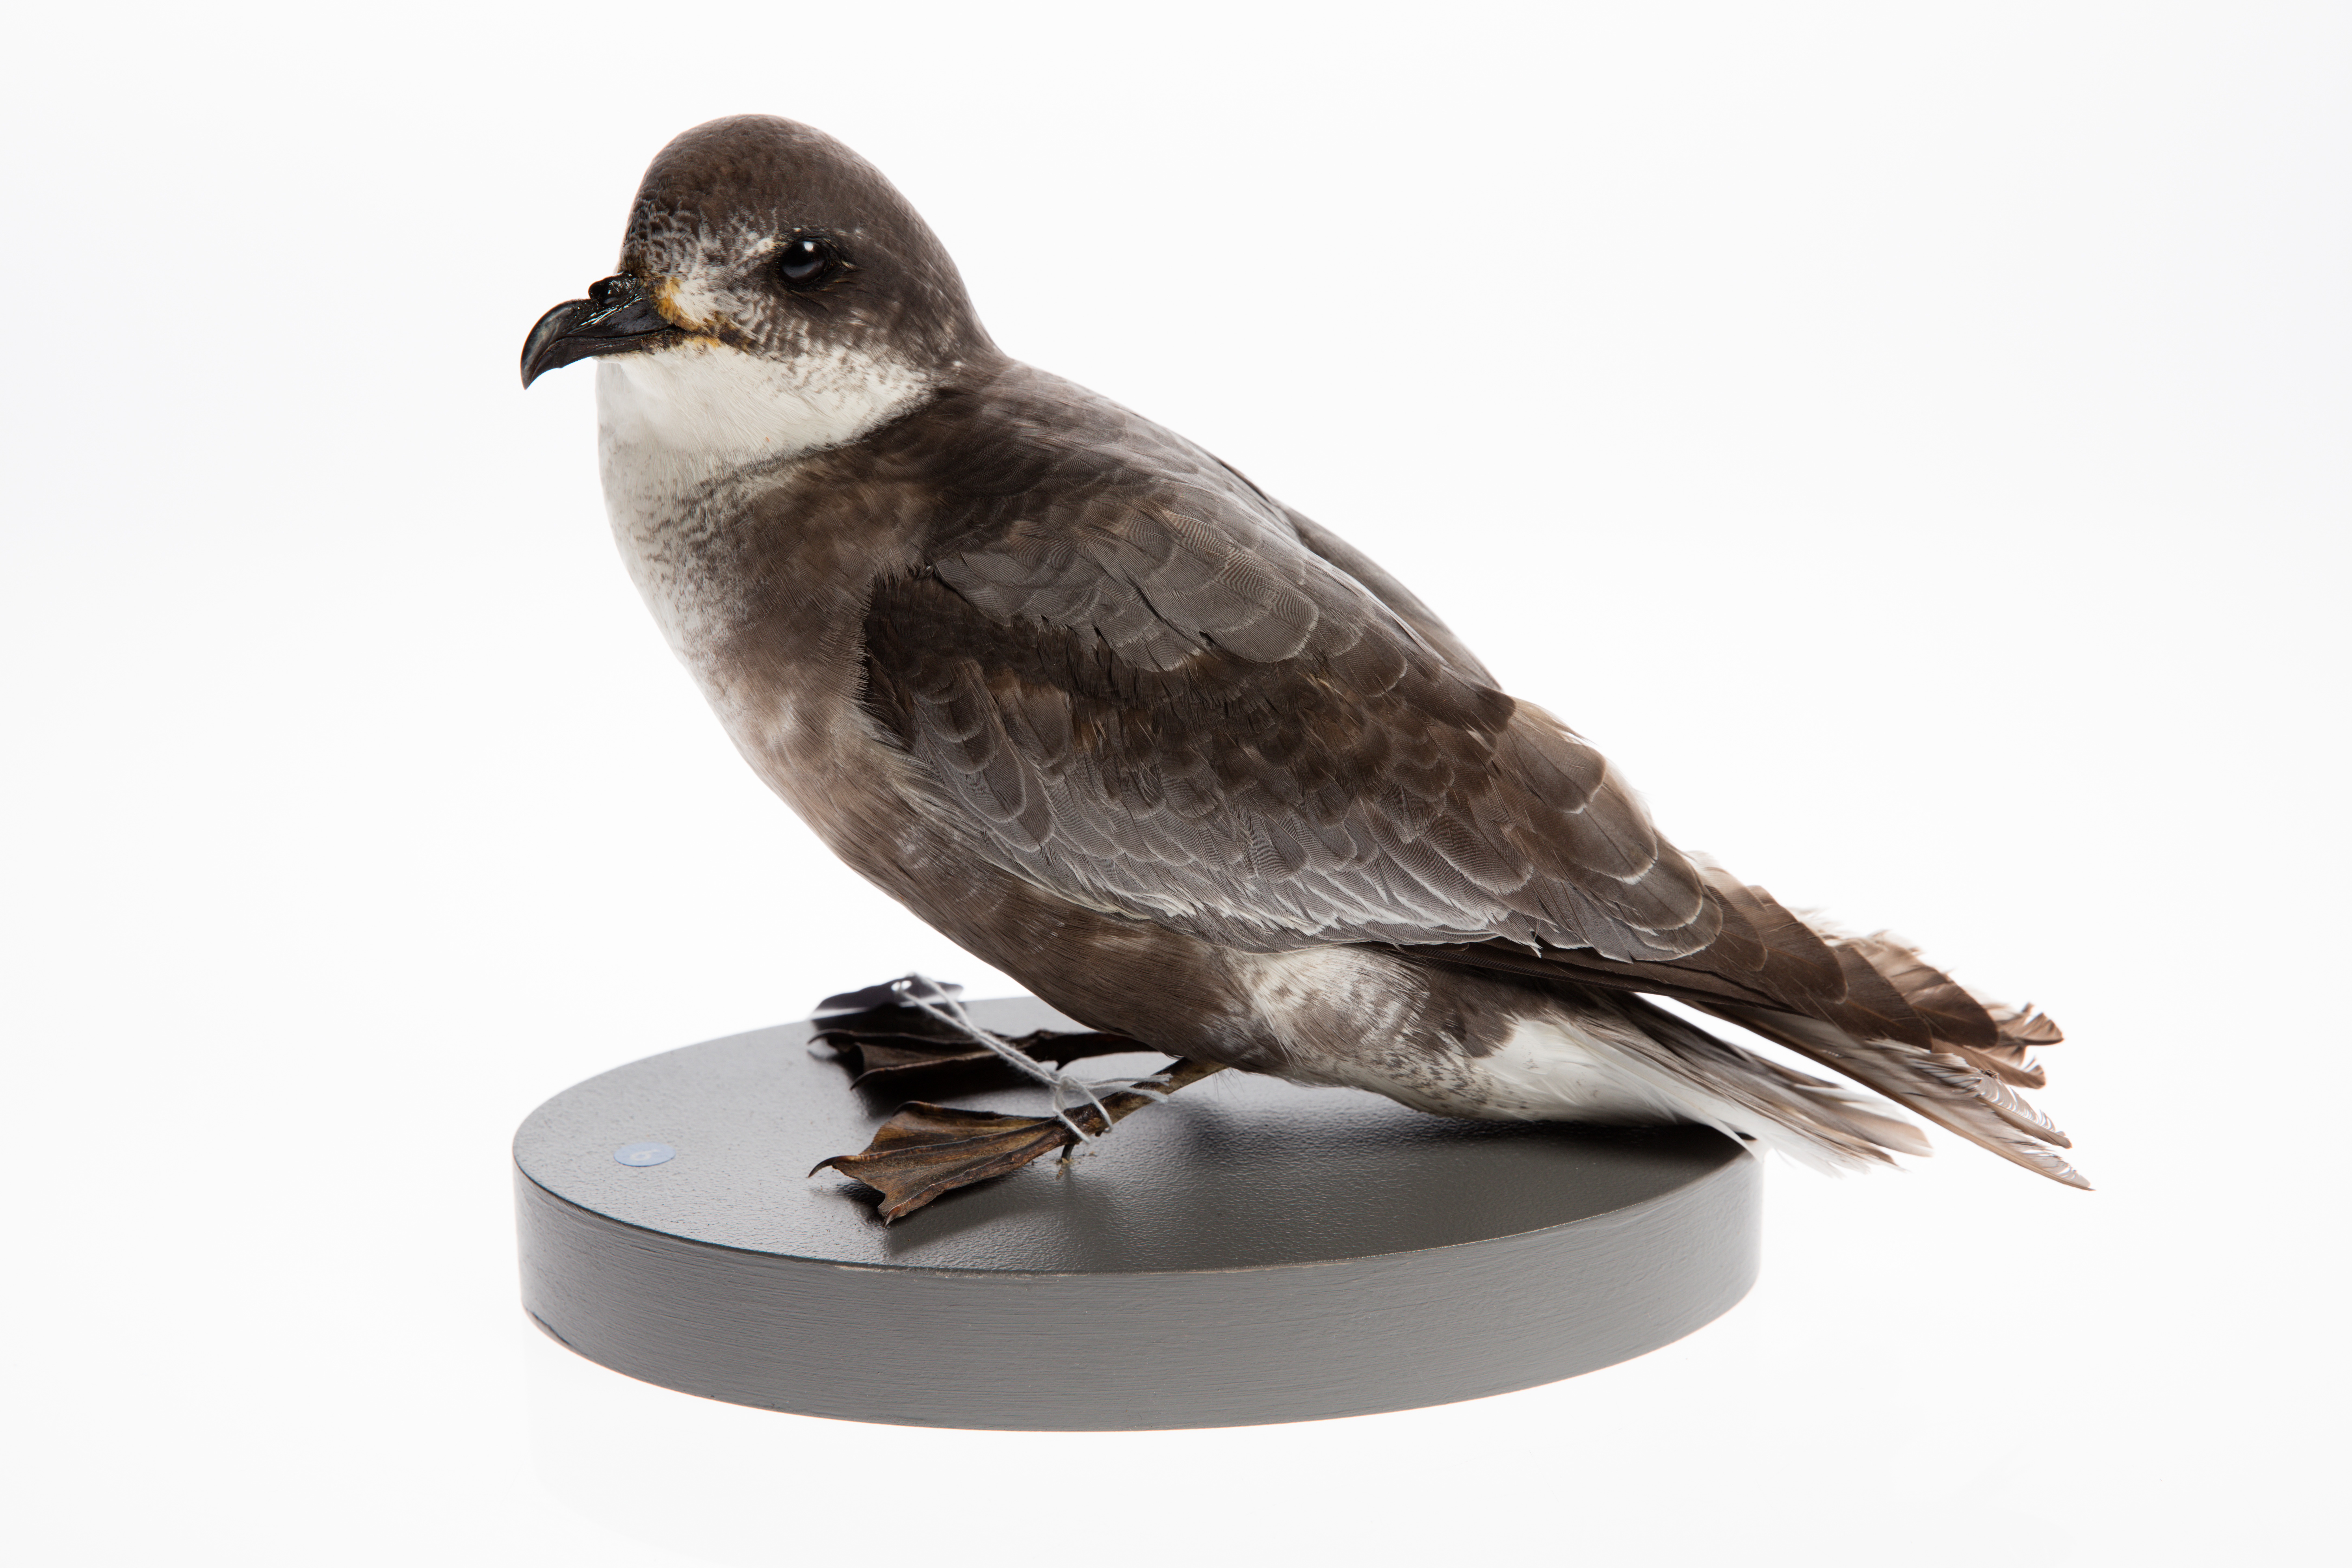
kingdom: Animalia
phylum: Chordata
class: Aves
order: Procellariiformes
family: Procellariidae
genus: Pterodroma
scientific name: Pterodroma inexpectata
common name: Mottled petrel
